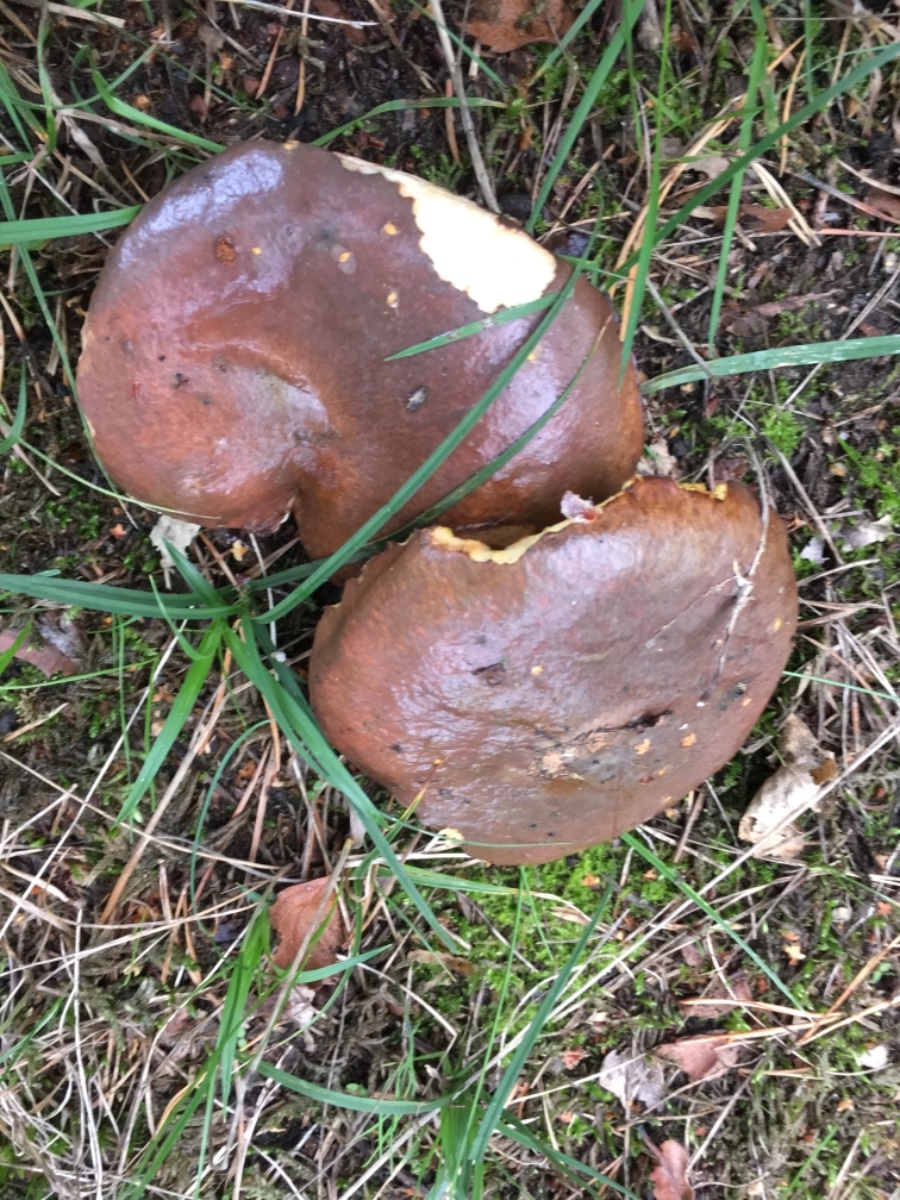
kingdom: Fungi
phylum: Basidiomycota
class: Agaricomycetes
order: Boletales
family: Suillaceae
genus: Suillus
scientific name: Suillus luteus
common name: brungul slimrørhat
